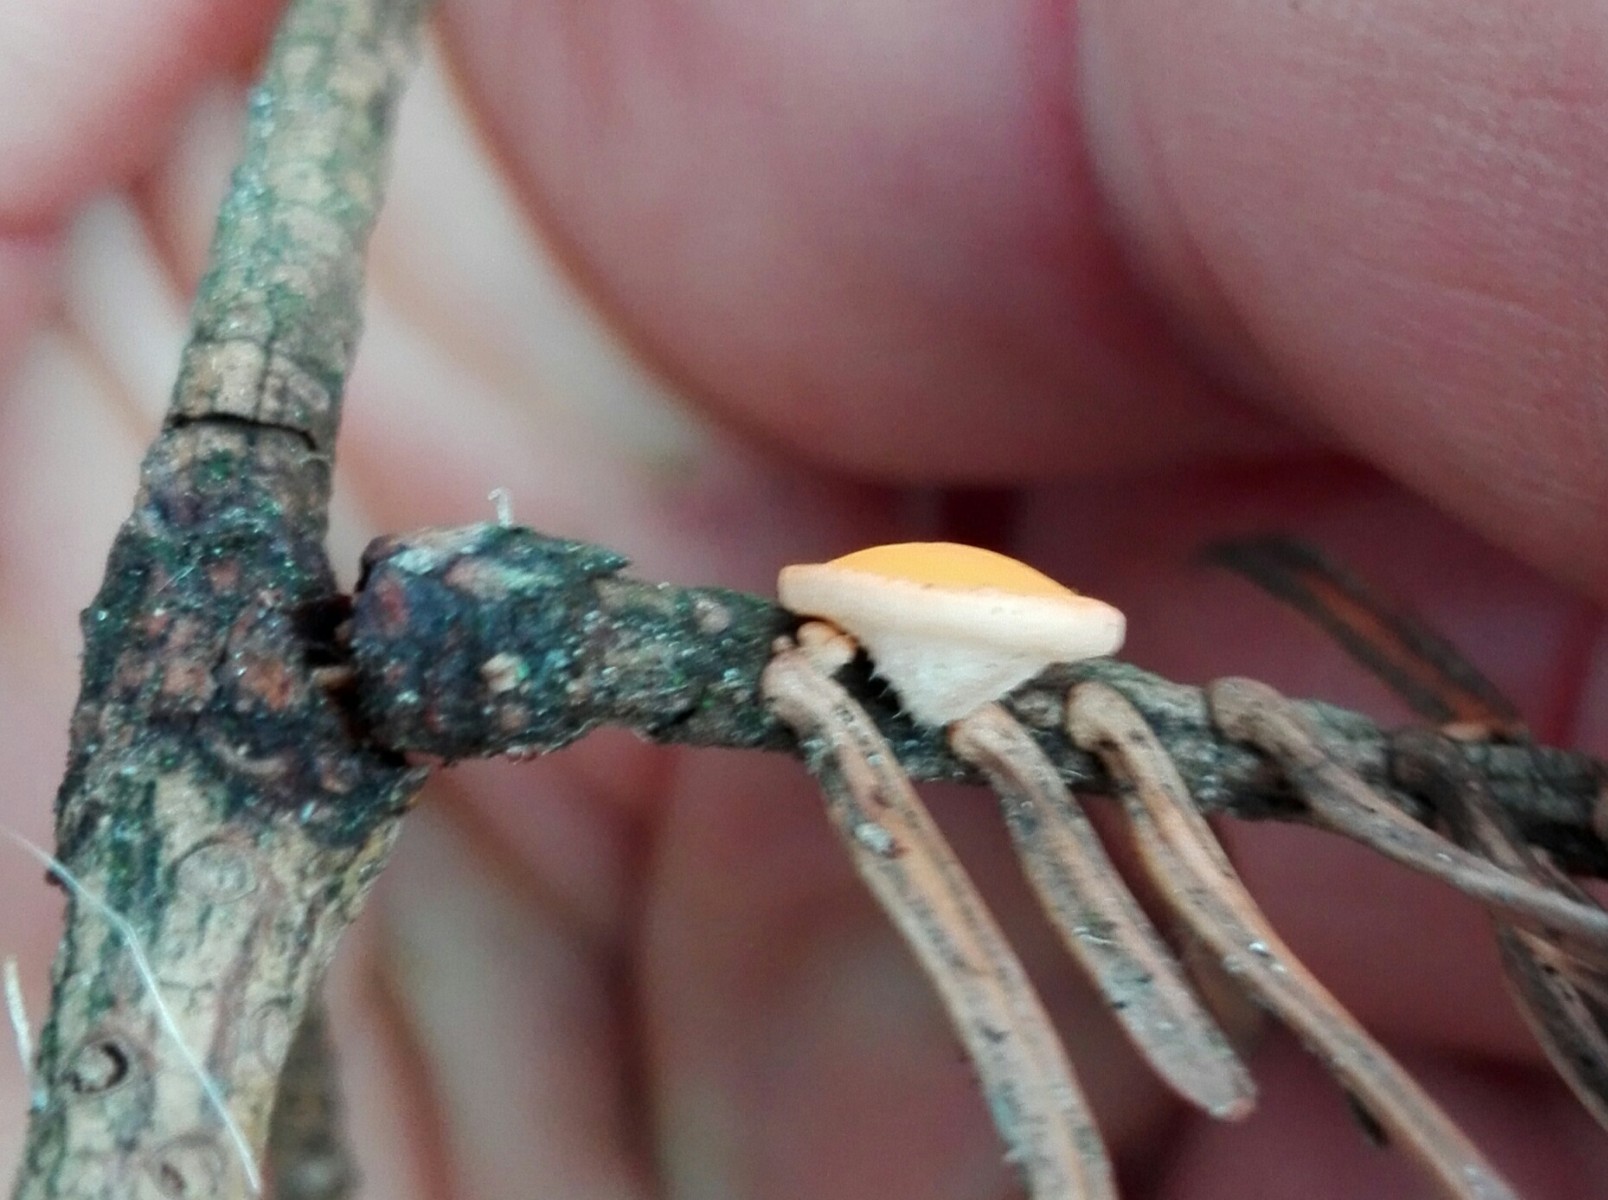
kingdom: Fungi
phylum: Ascomycota
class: Pezizomycetes
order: Pezizales
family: Sarcoscyphaceae
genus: Pithya
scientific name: Pithya vulgaris
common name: stor dukatbæger
